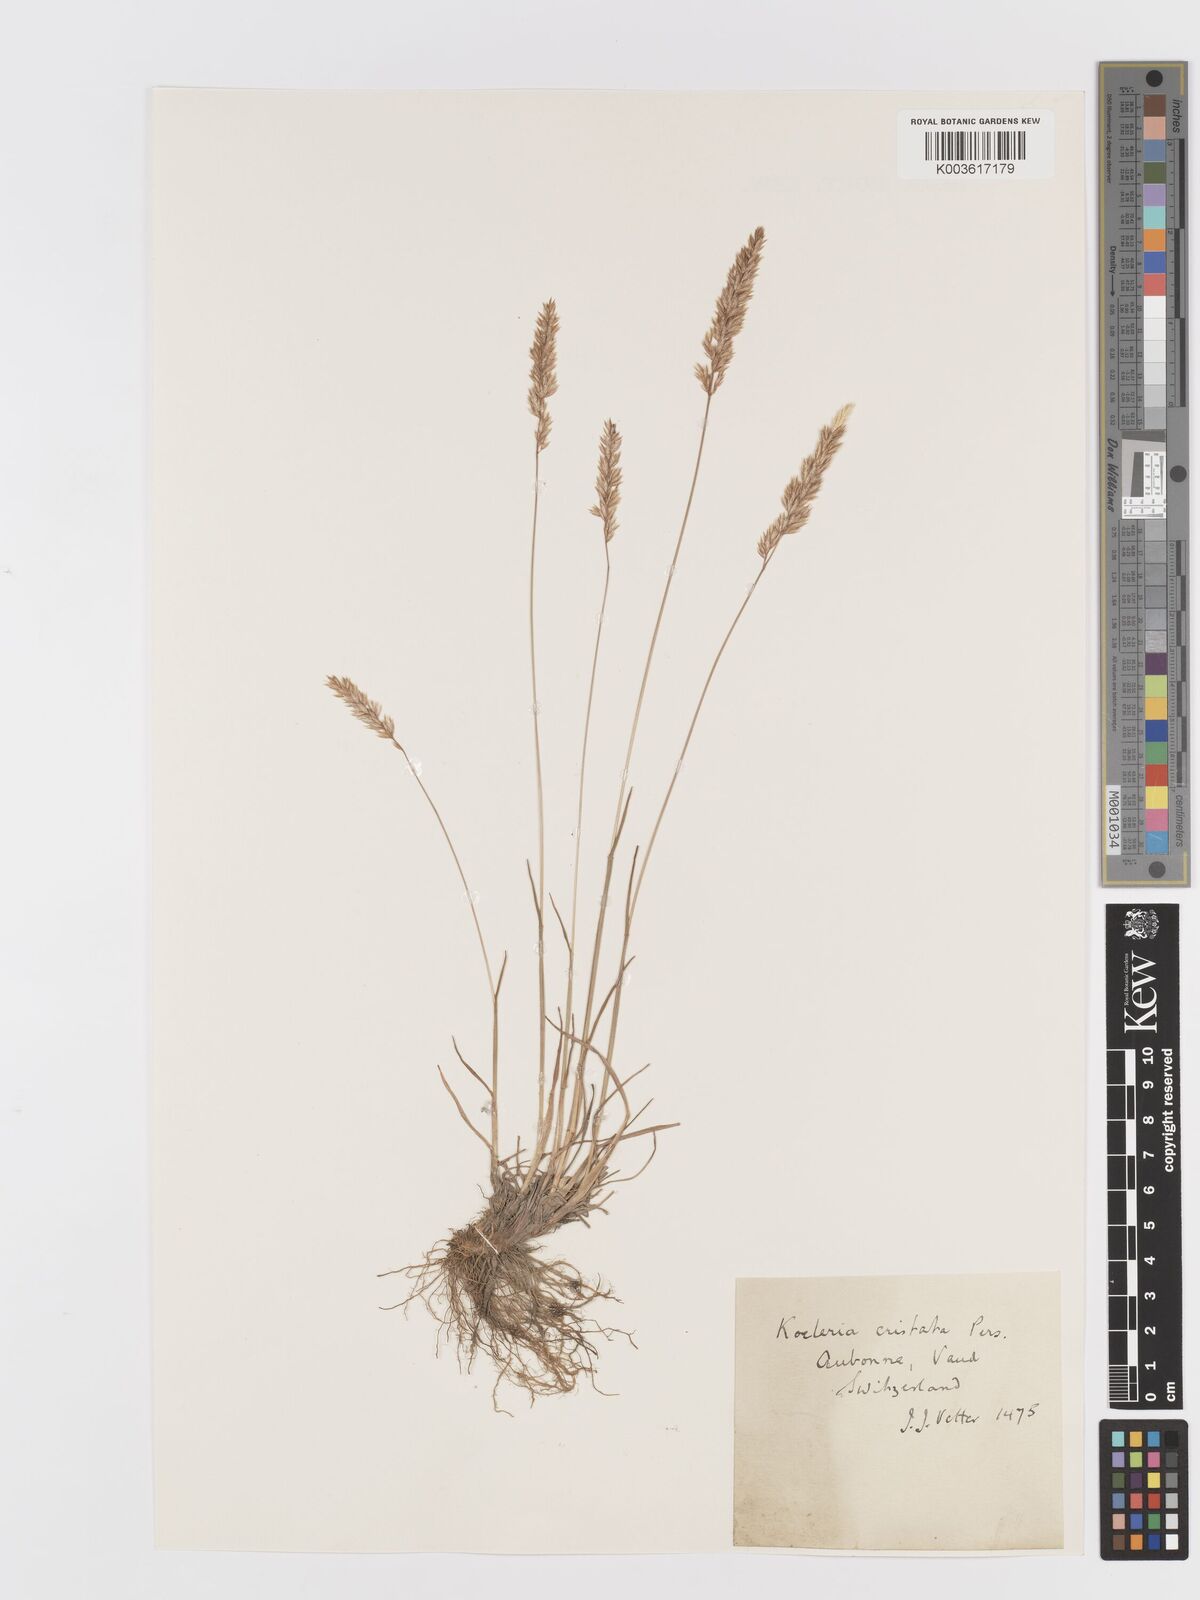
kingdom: Plantae
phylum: Tracheophyta
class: Liliopsida
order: Poales
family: Poaceae
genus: Koeleria
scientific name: Koeleria
